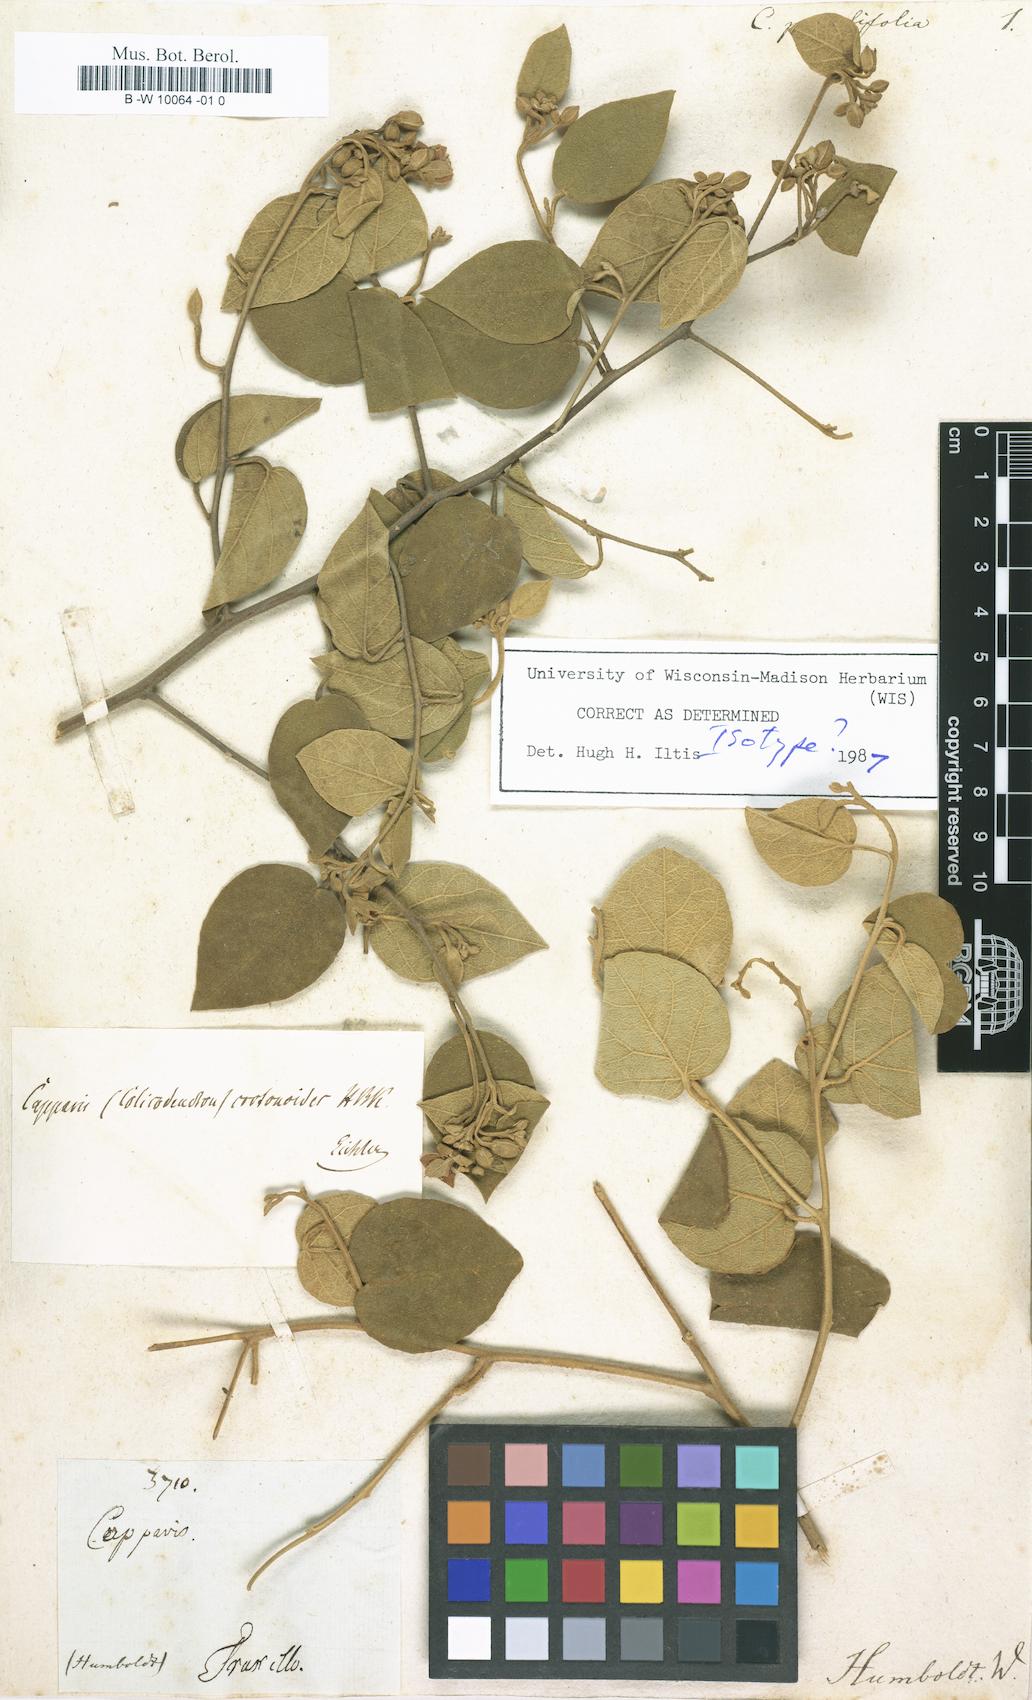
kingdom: Plantae
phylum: Tracheophyta
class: Magnoliopsida
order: Brassicales
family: Capparaceae
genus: Capparicordis
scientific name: Capparicordis crotonoides
